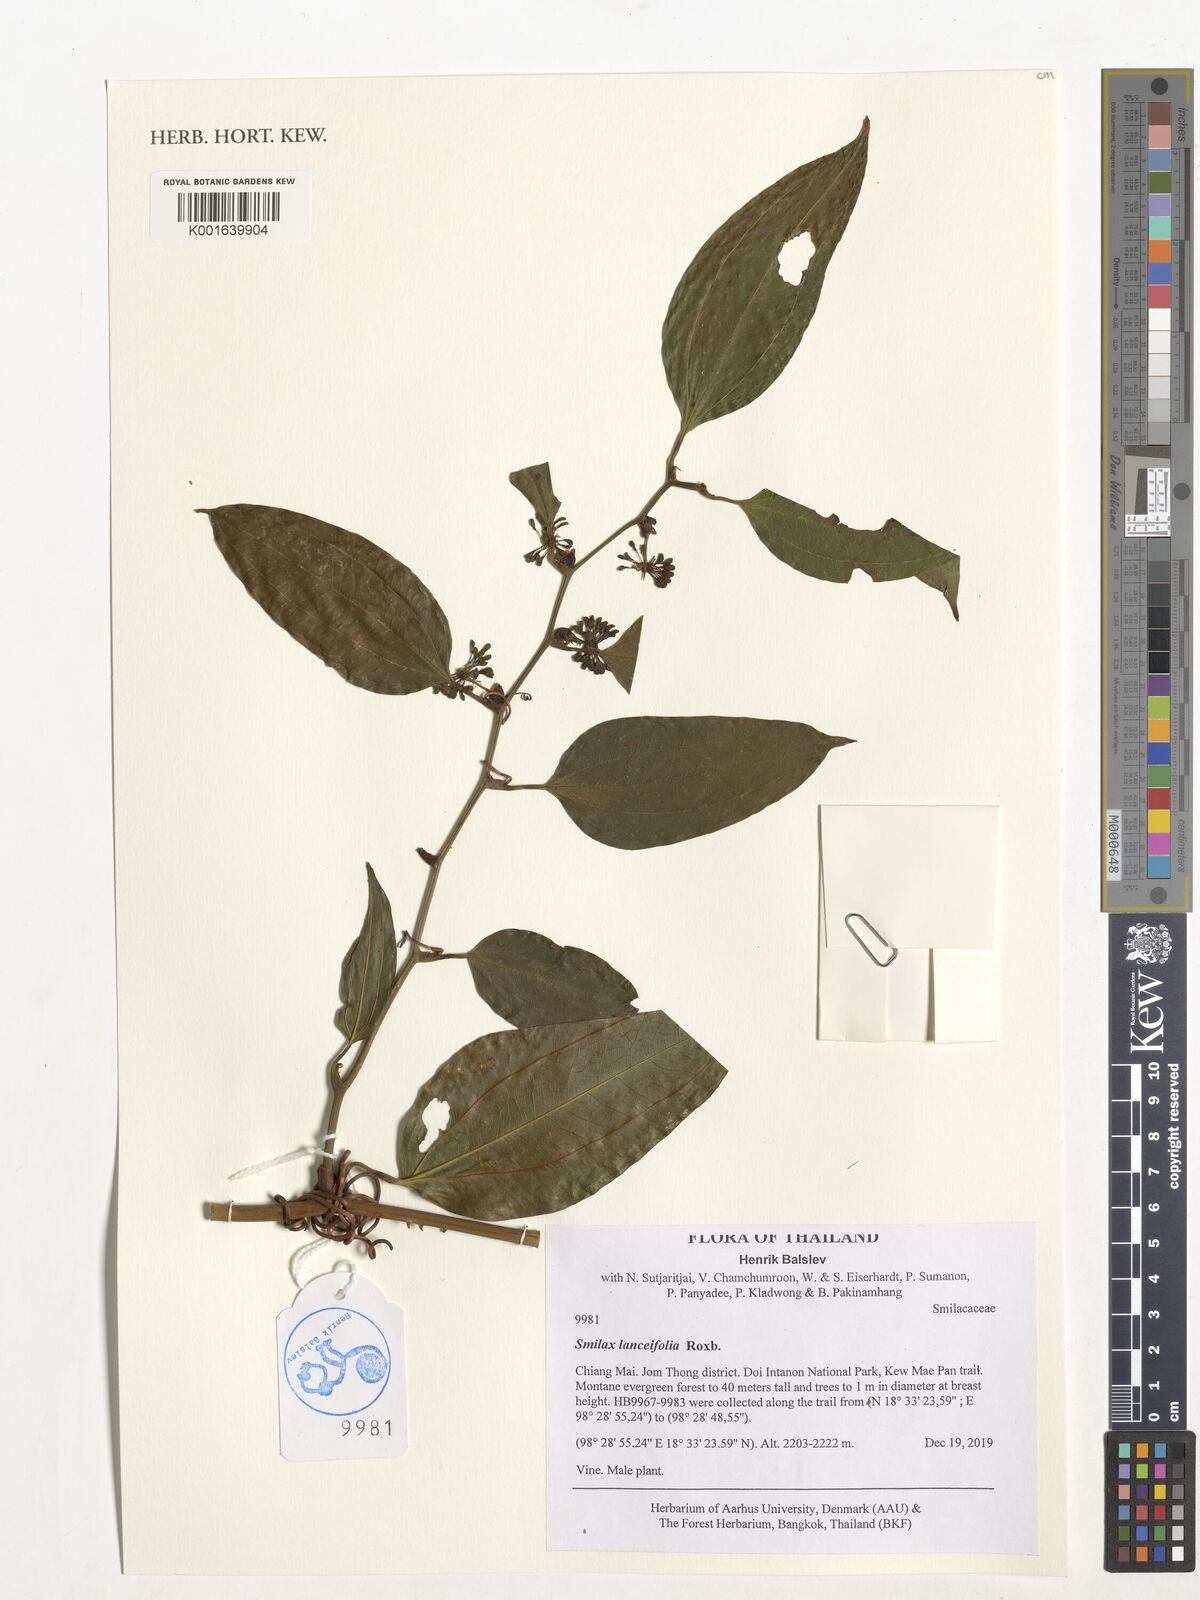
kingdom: Plantae
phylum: Tracheophyta
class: Liliopsida
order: Liliales
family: Smilacaceae
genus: Smilax
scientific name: Smilax lanceifolia
